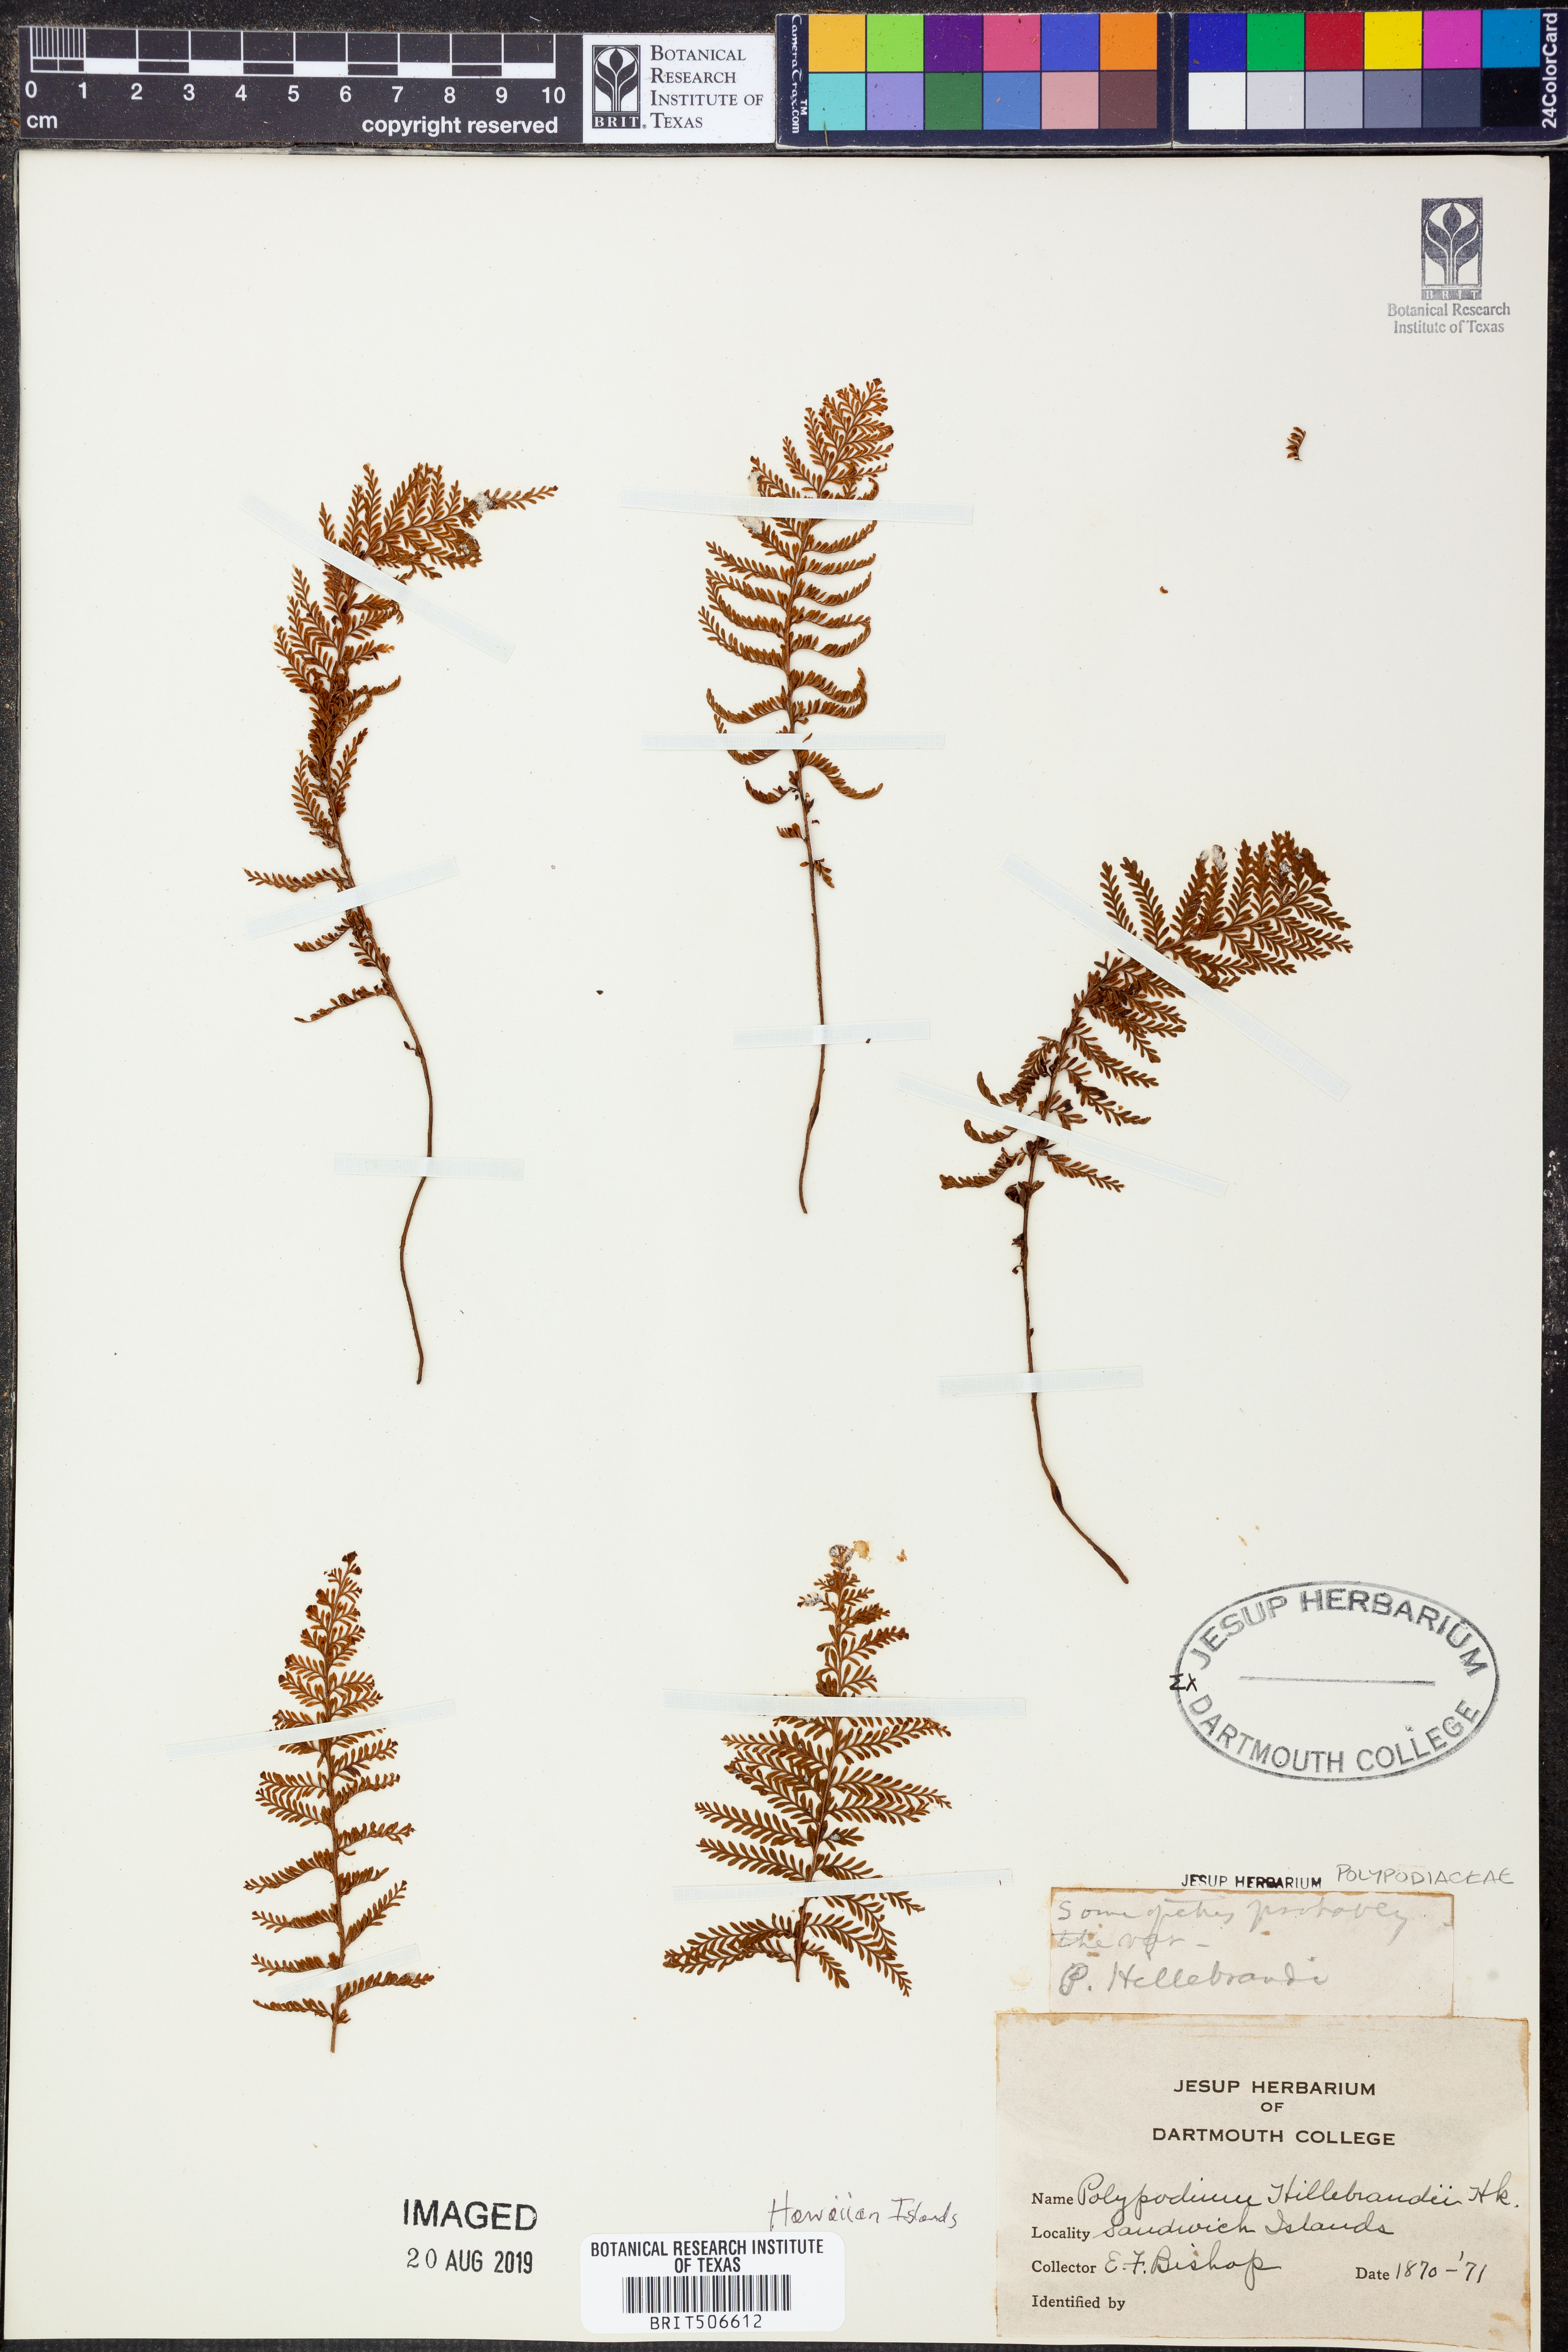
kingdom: Plantae
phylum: Tracheophyta
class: Polypodiopsida
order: Polypodiales
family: Polypodiaceae
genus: Adenophorus
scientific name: Adenophorus tripinnatifidus
